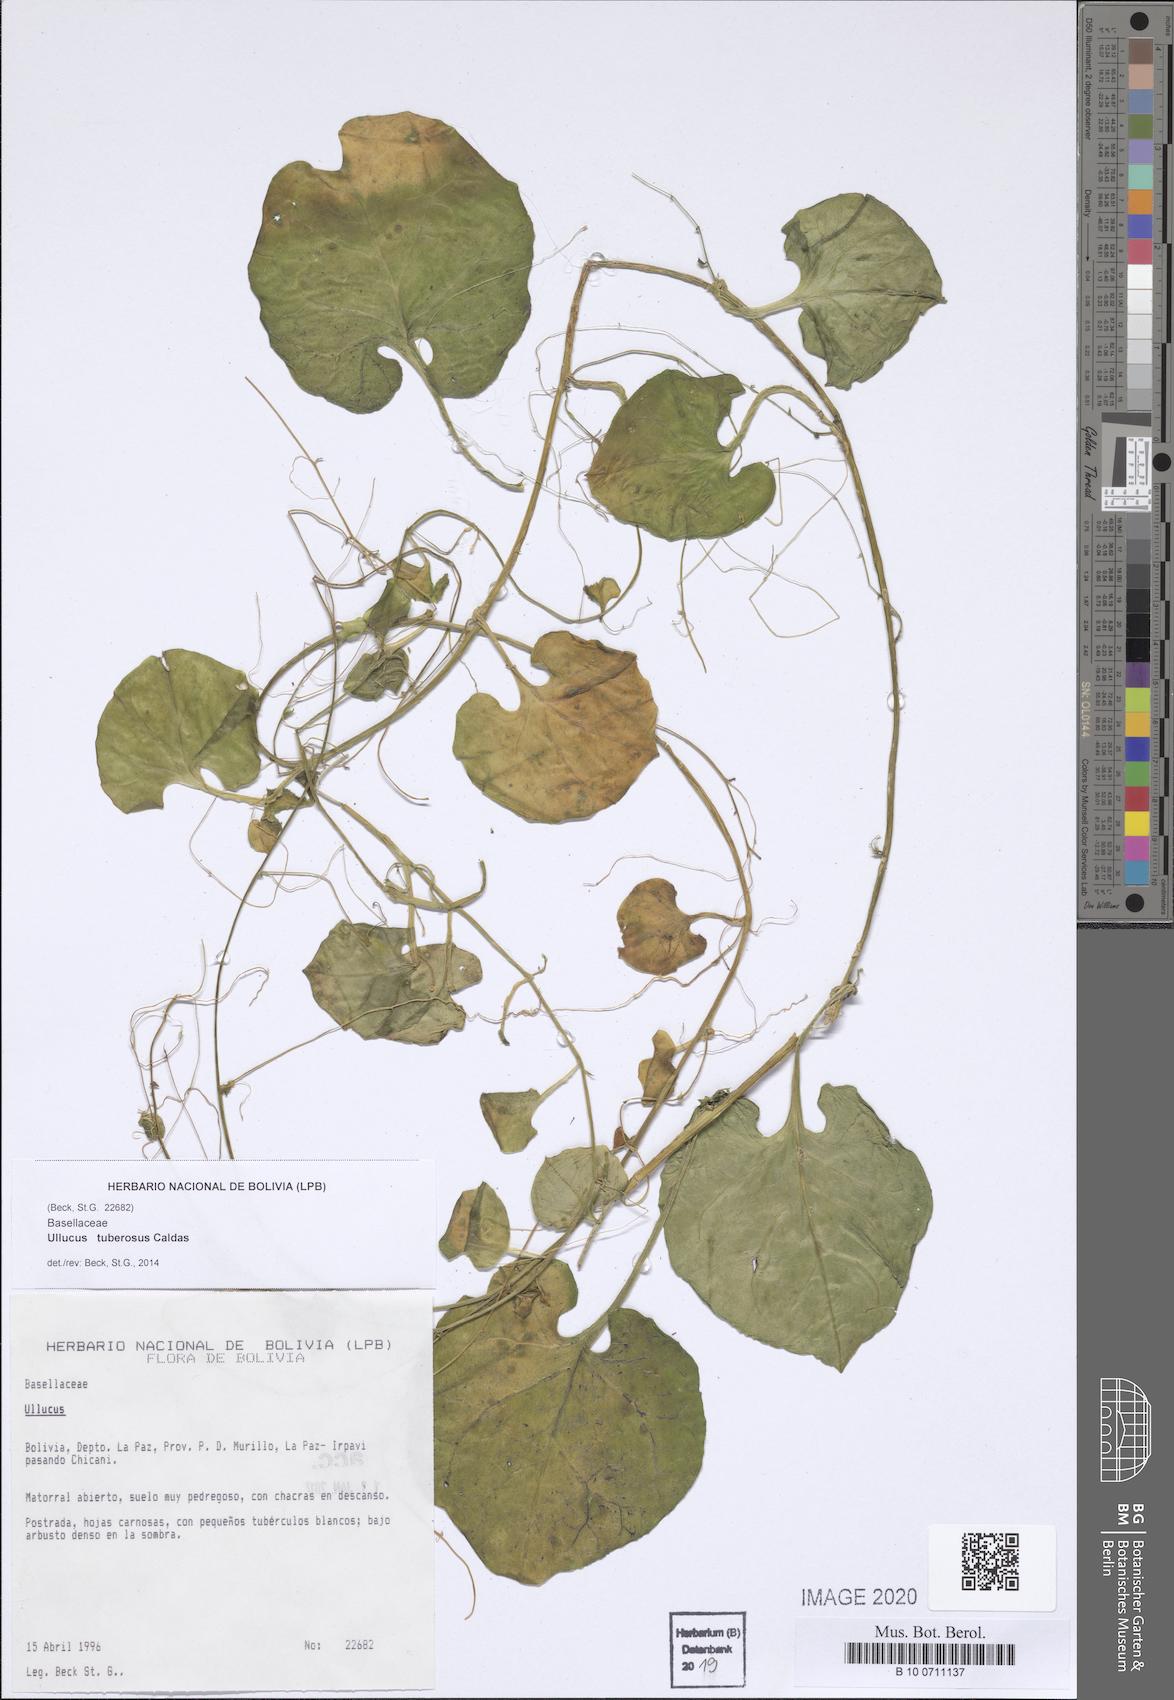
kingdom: Plantae
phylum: Tracheophyta
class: Magnoliopsida
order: Caryophyllales
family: Basellaceae
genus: Ullucus
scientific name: Ullucus tuberosus
